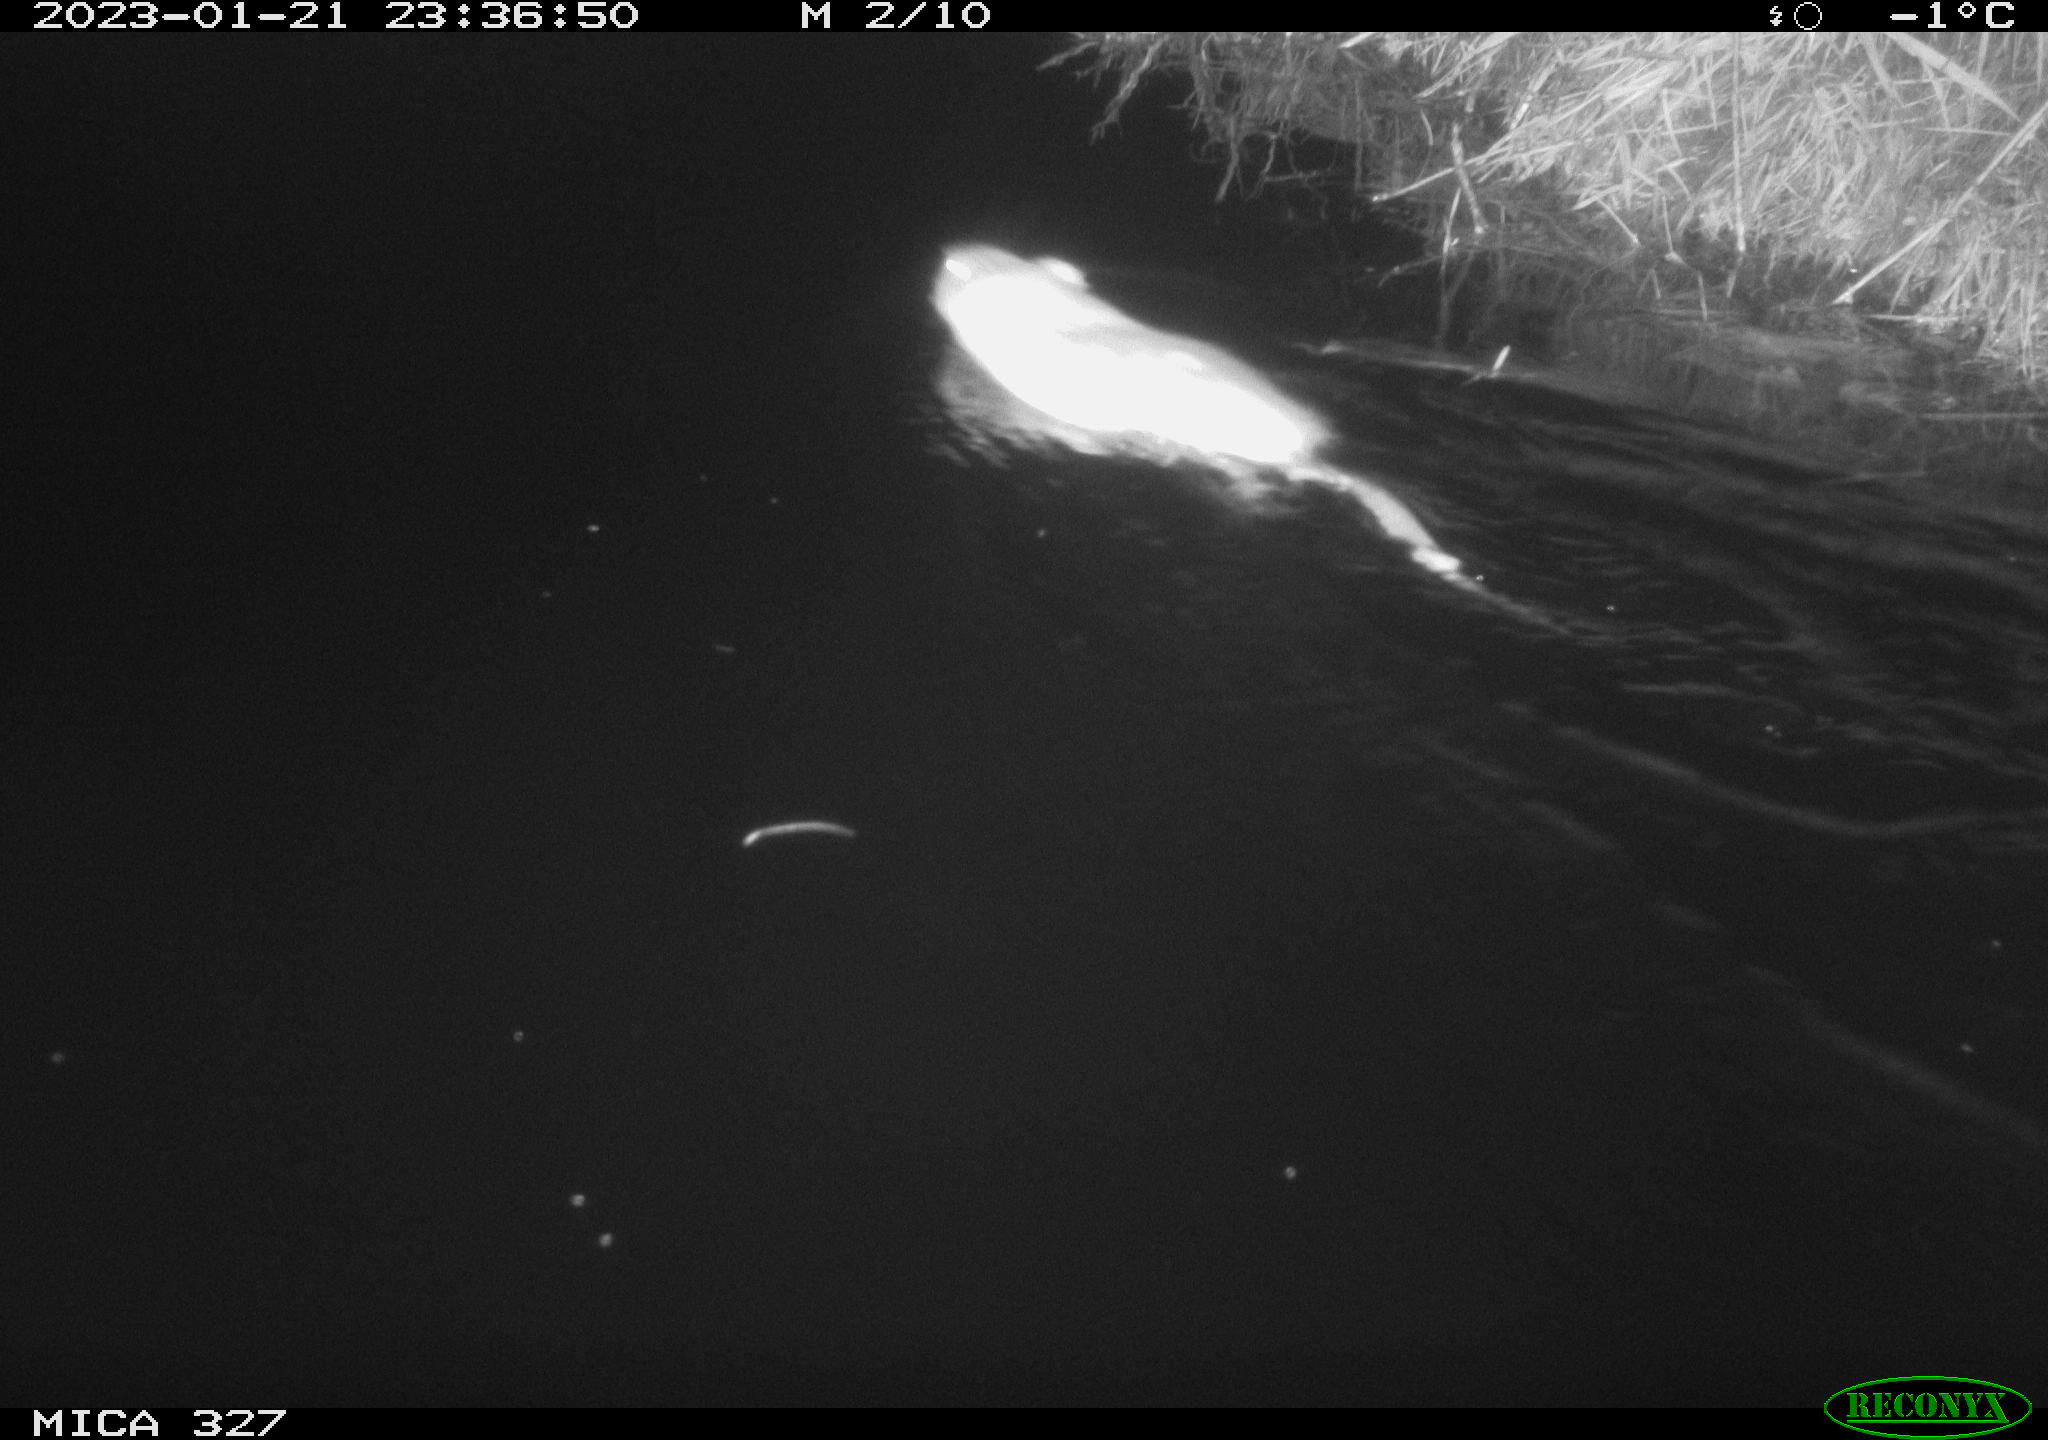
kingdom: Animalia
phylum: Chordata
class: Mammalia
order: Rodentia
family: Cricetidae
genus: Ondatra
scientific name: Ondatra zibethicus
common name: Muskrat
